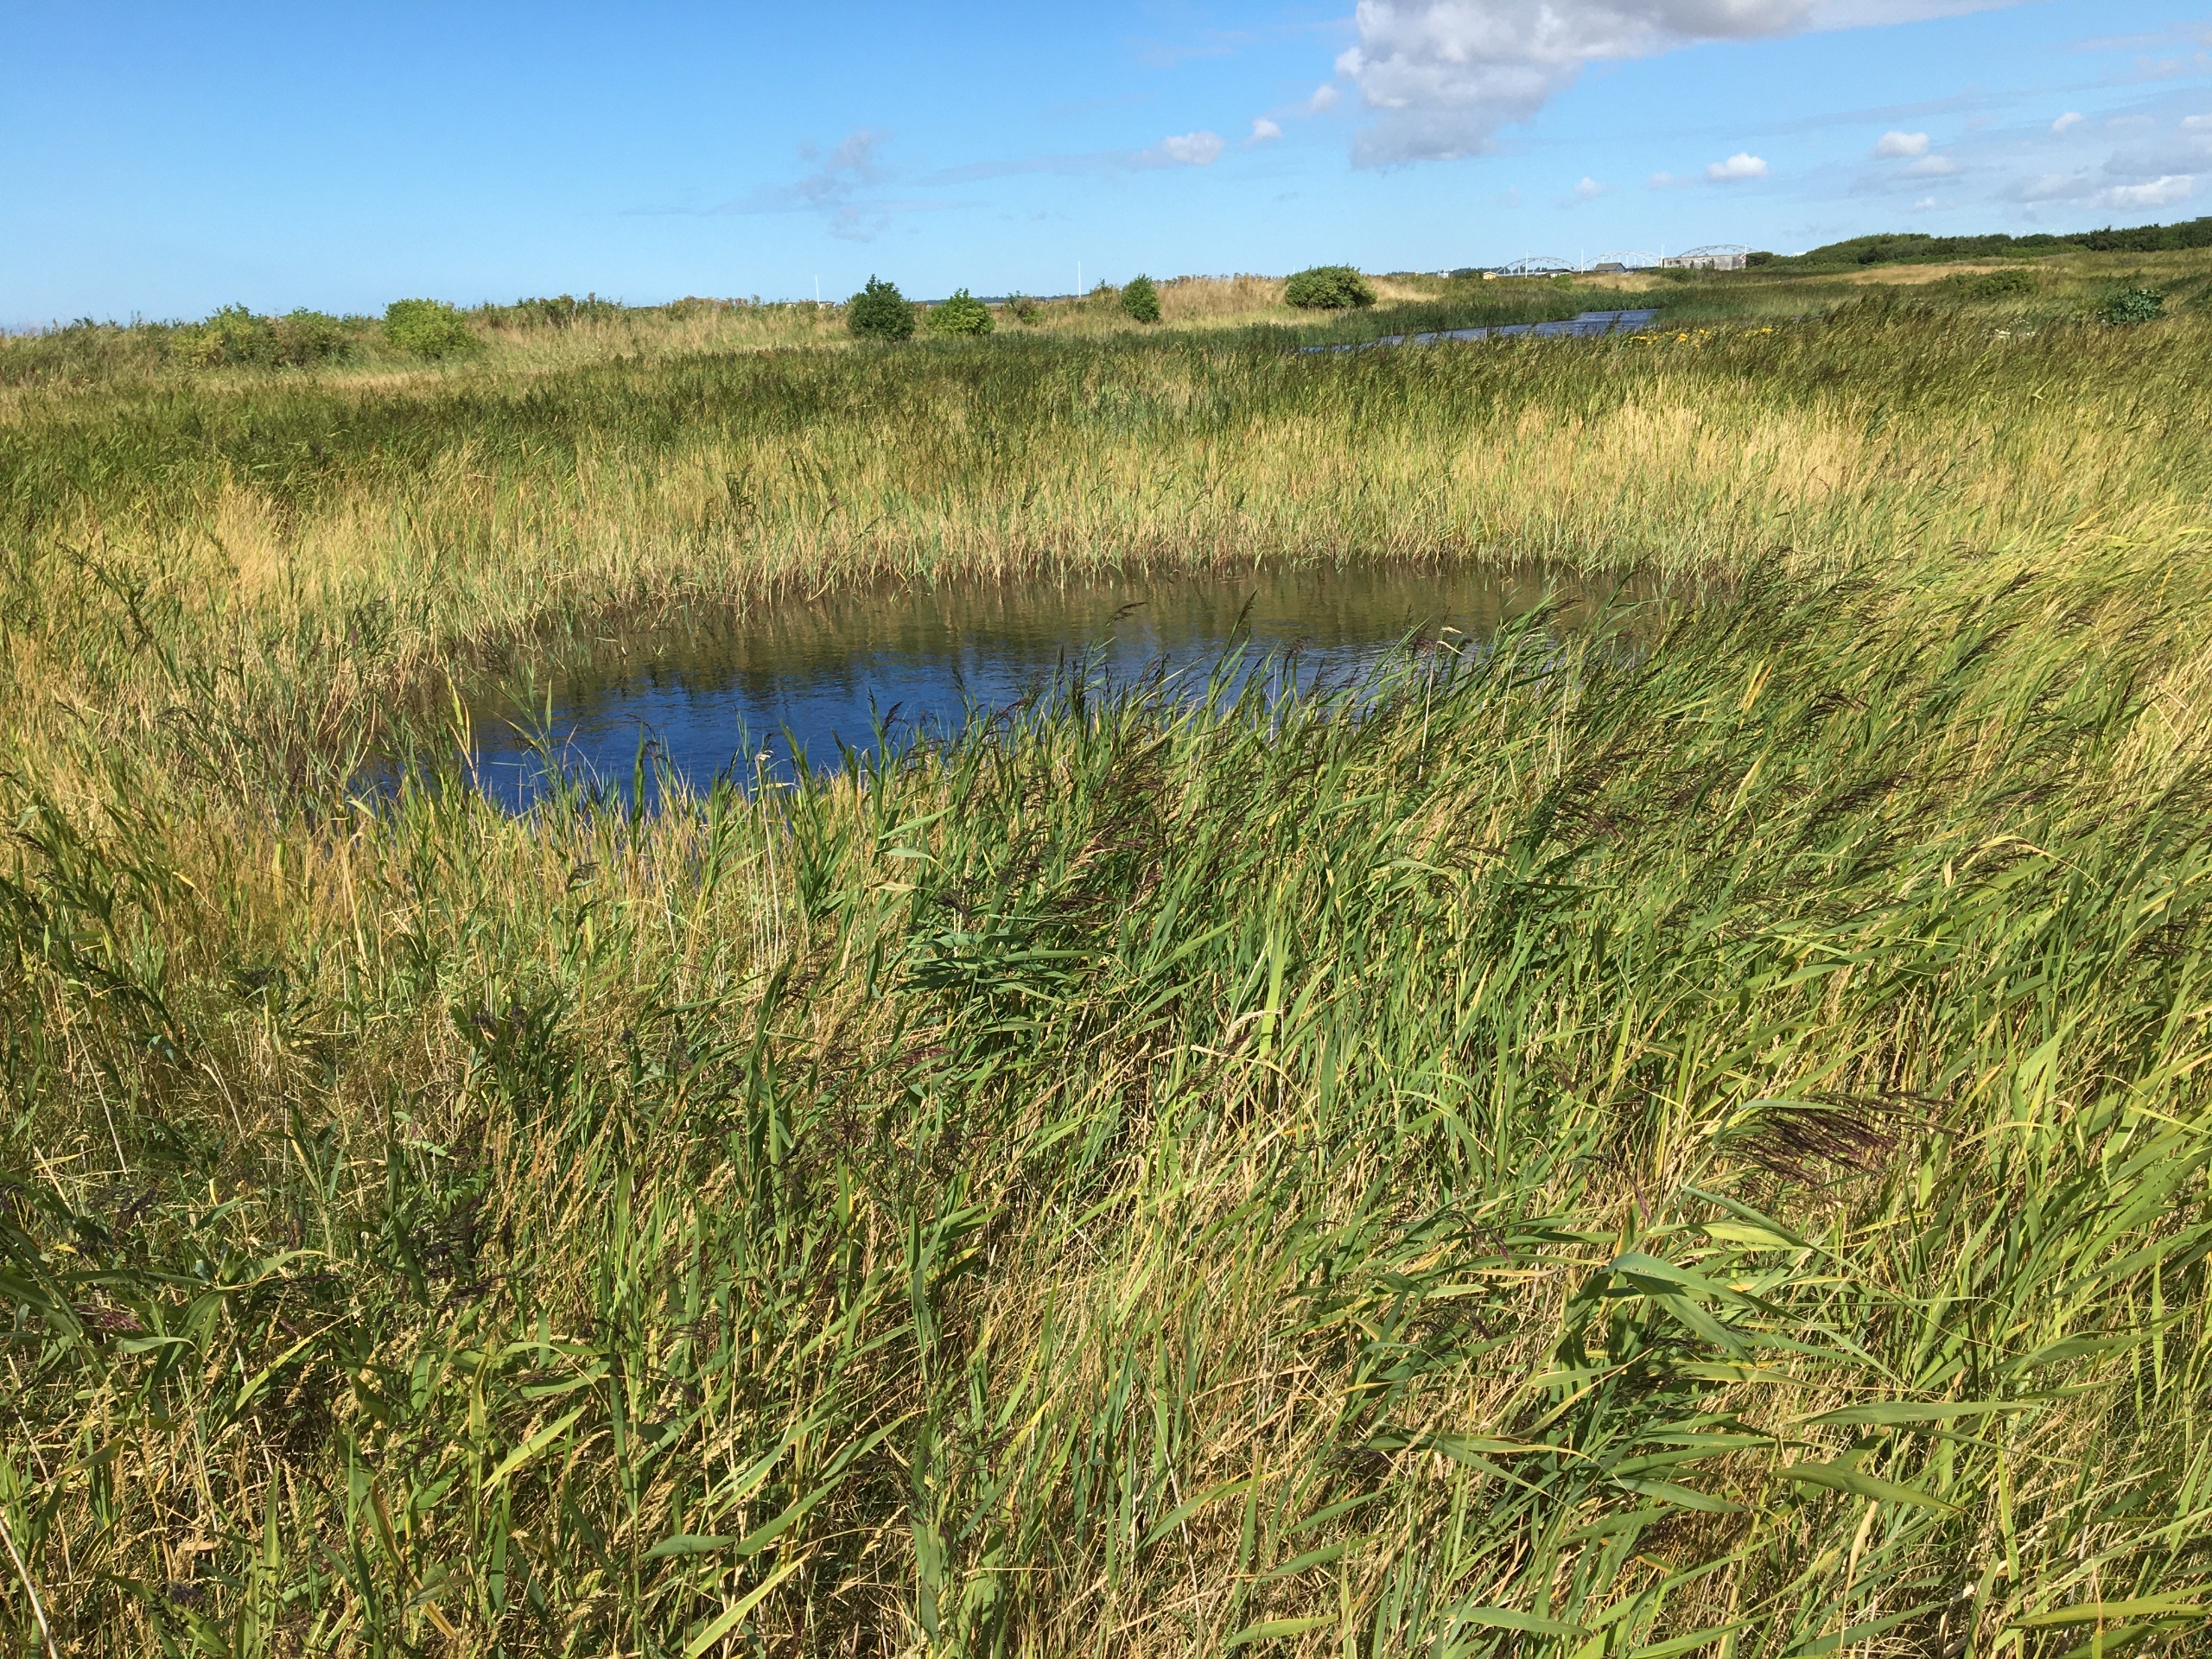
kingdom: Plantae
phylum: Tracheophyta
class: Liliopsida
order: Poales
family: Poaceae
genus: Phragmites
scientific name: Phragmites australis
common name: Tagrør
